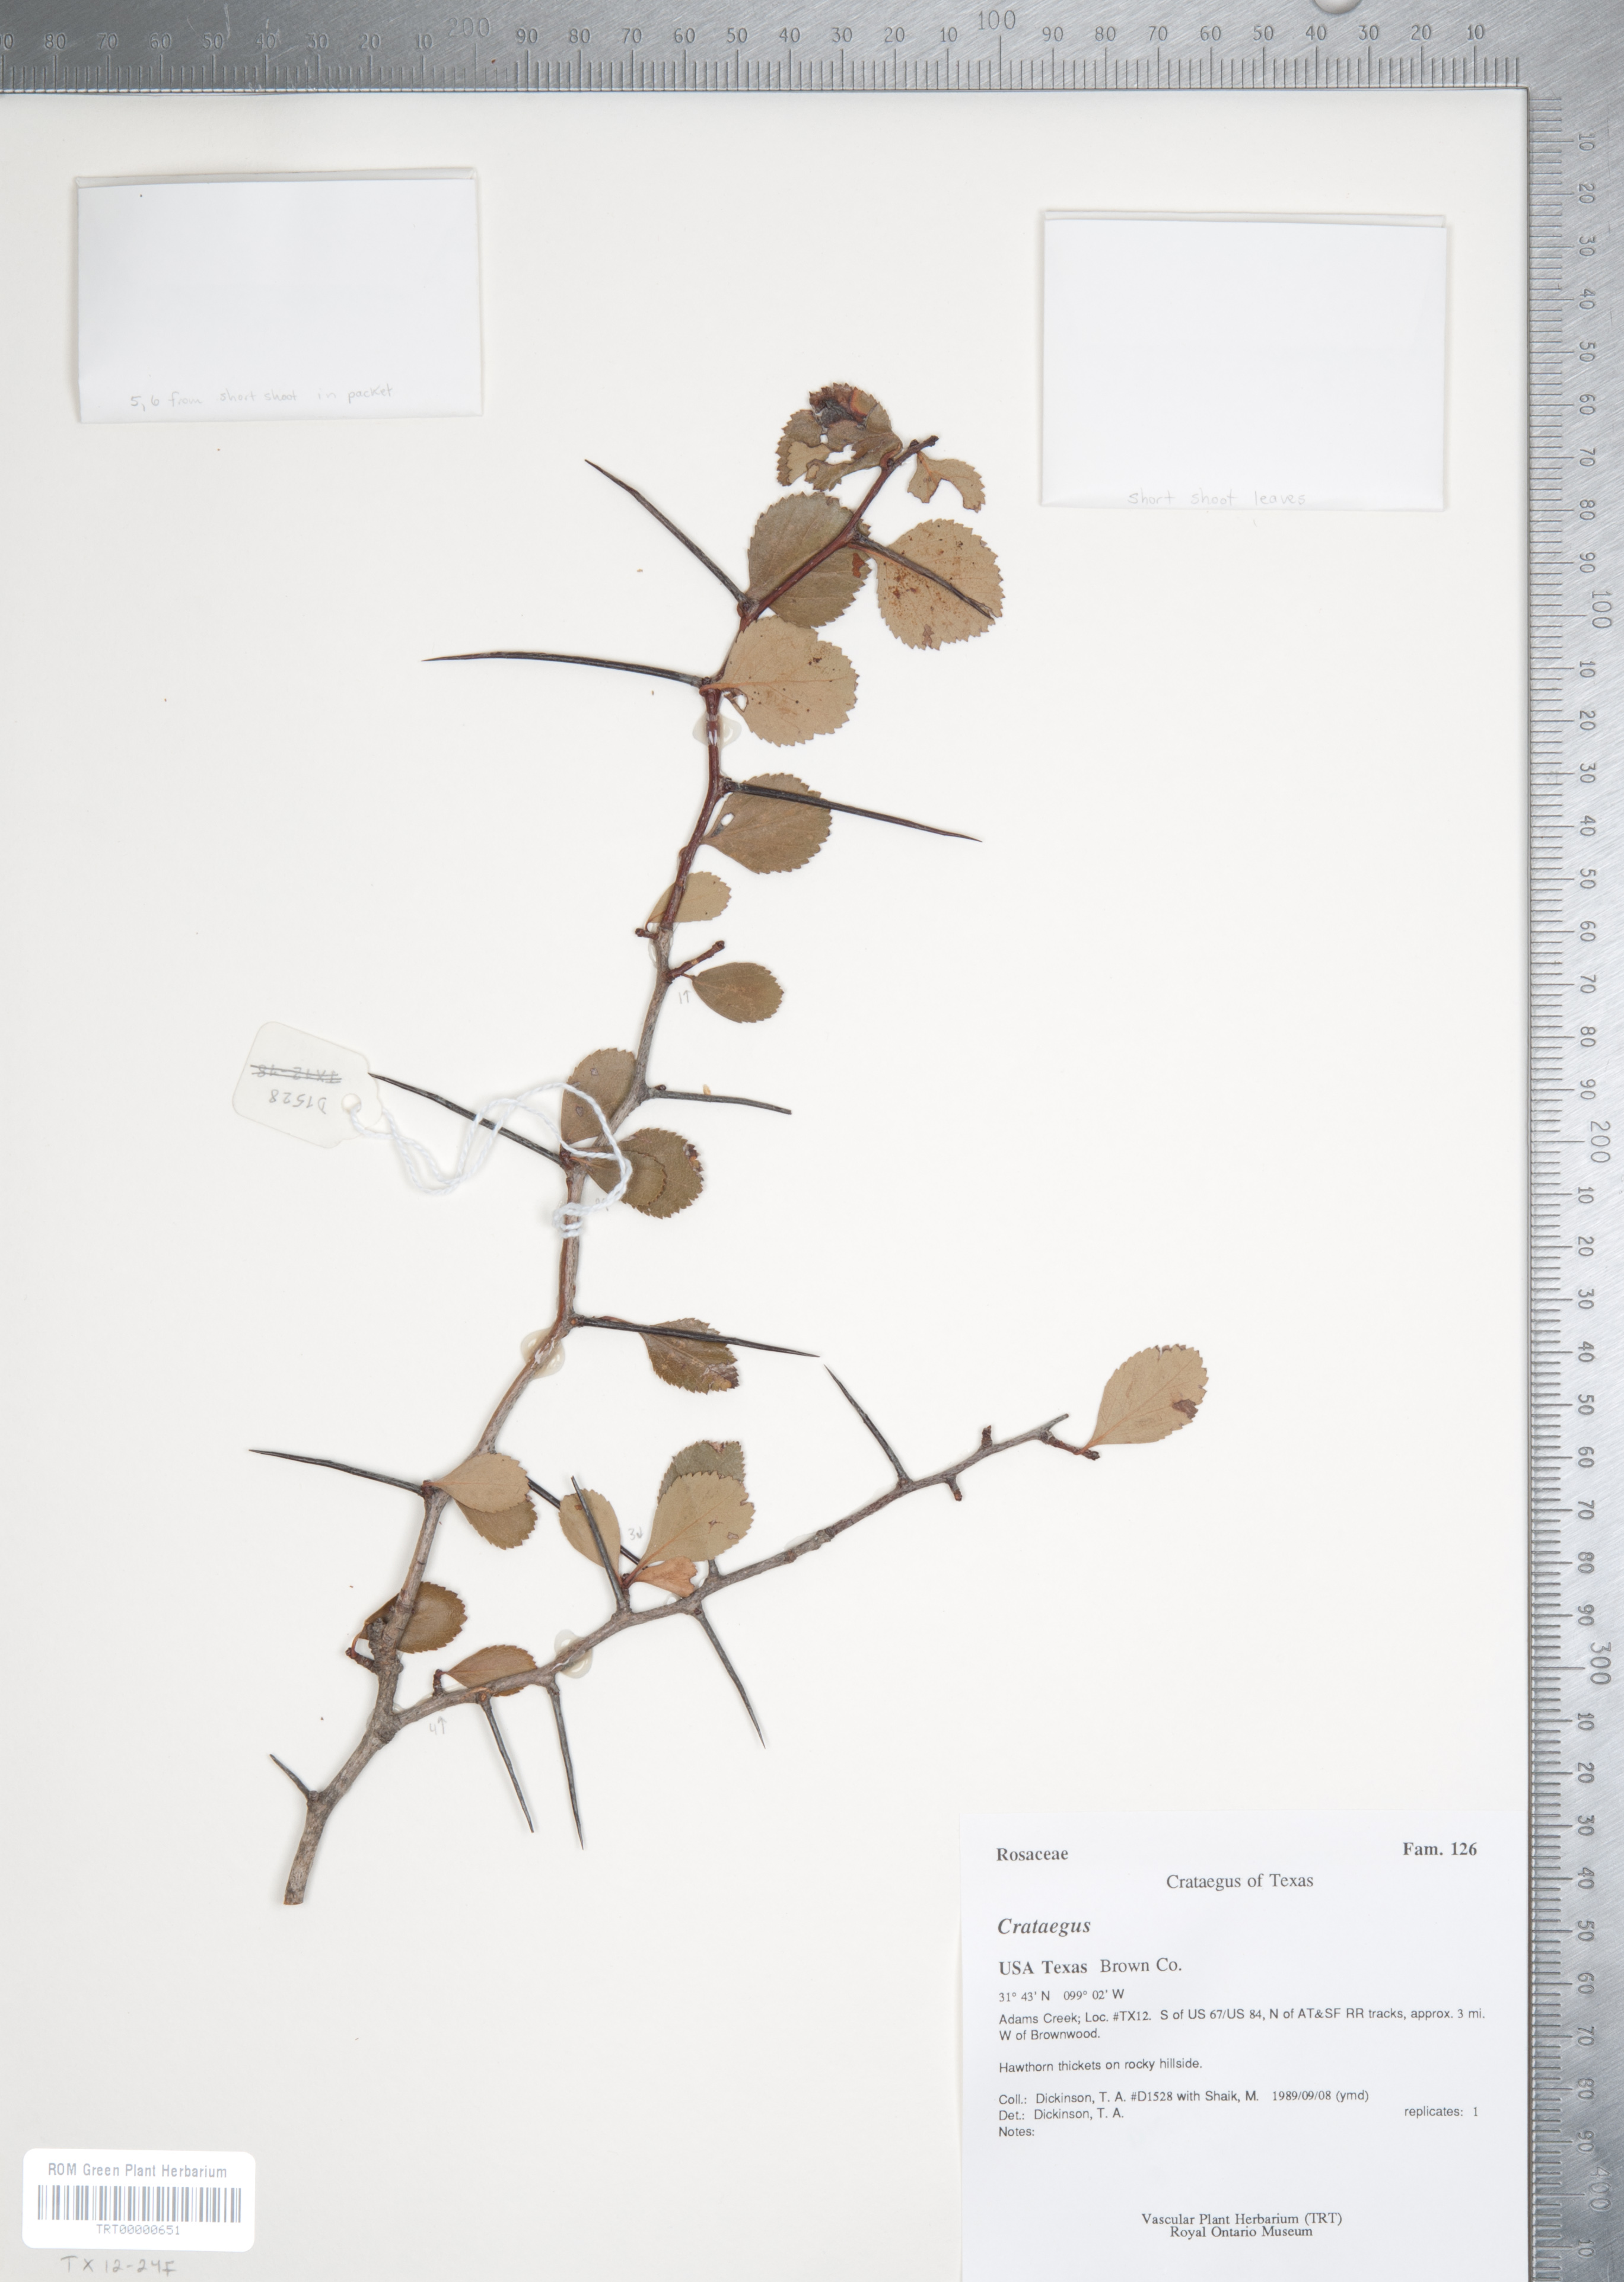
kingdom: Plantae
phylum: Tracheophyta
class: Magnoliopsida
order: Rosales
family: Rosaceae
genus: Crataegus
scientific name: Crataegus crus-galli
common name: Cockspurthorn
